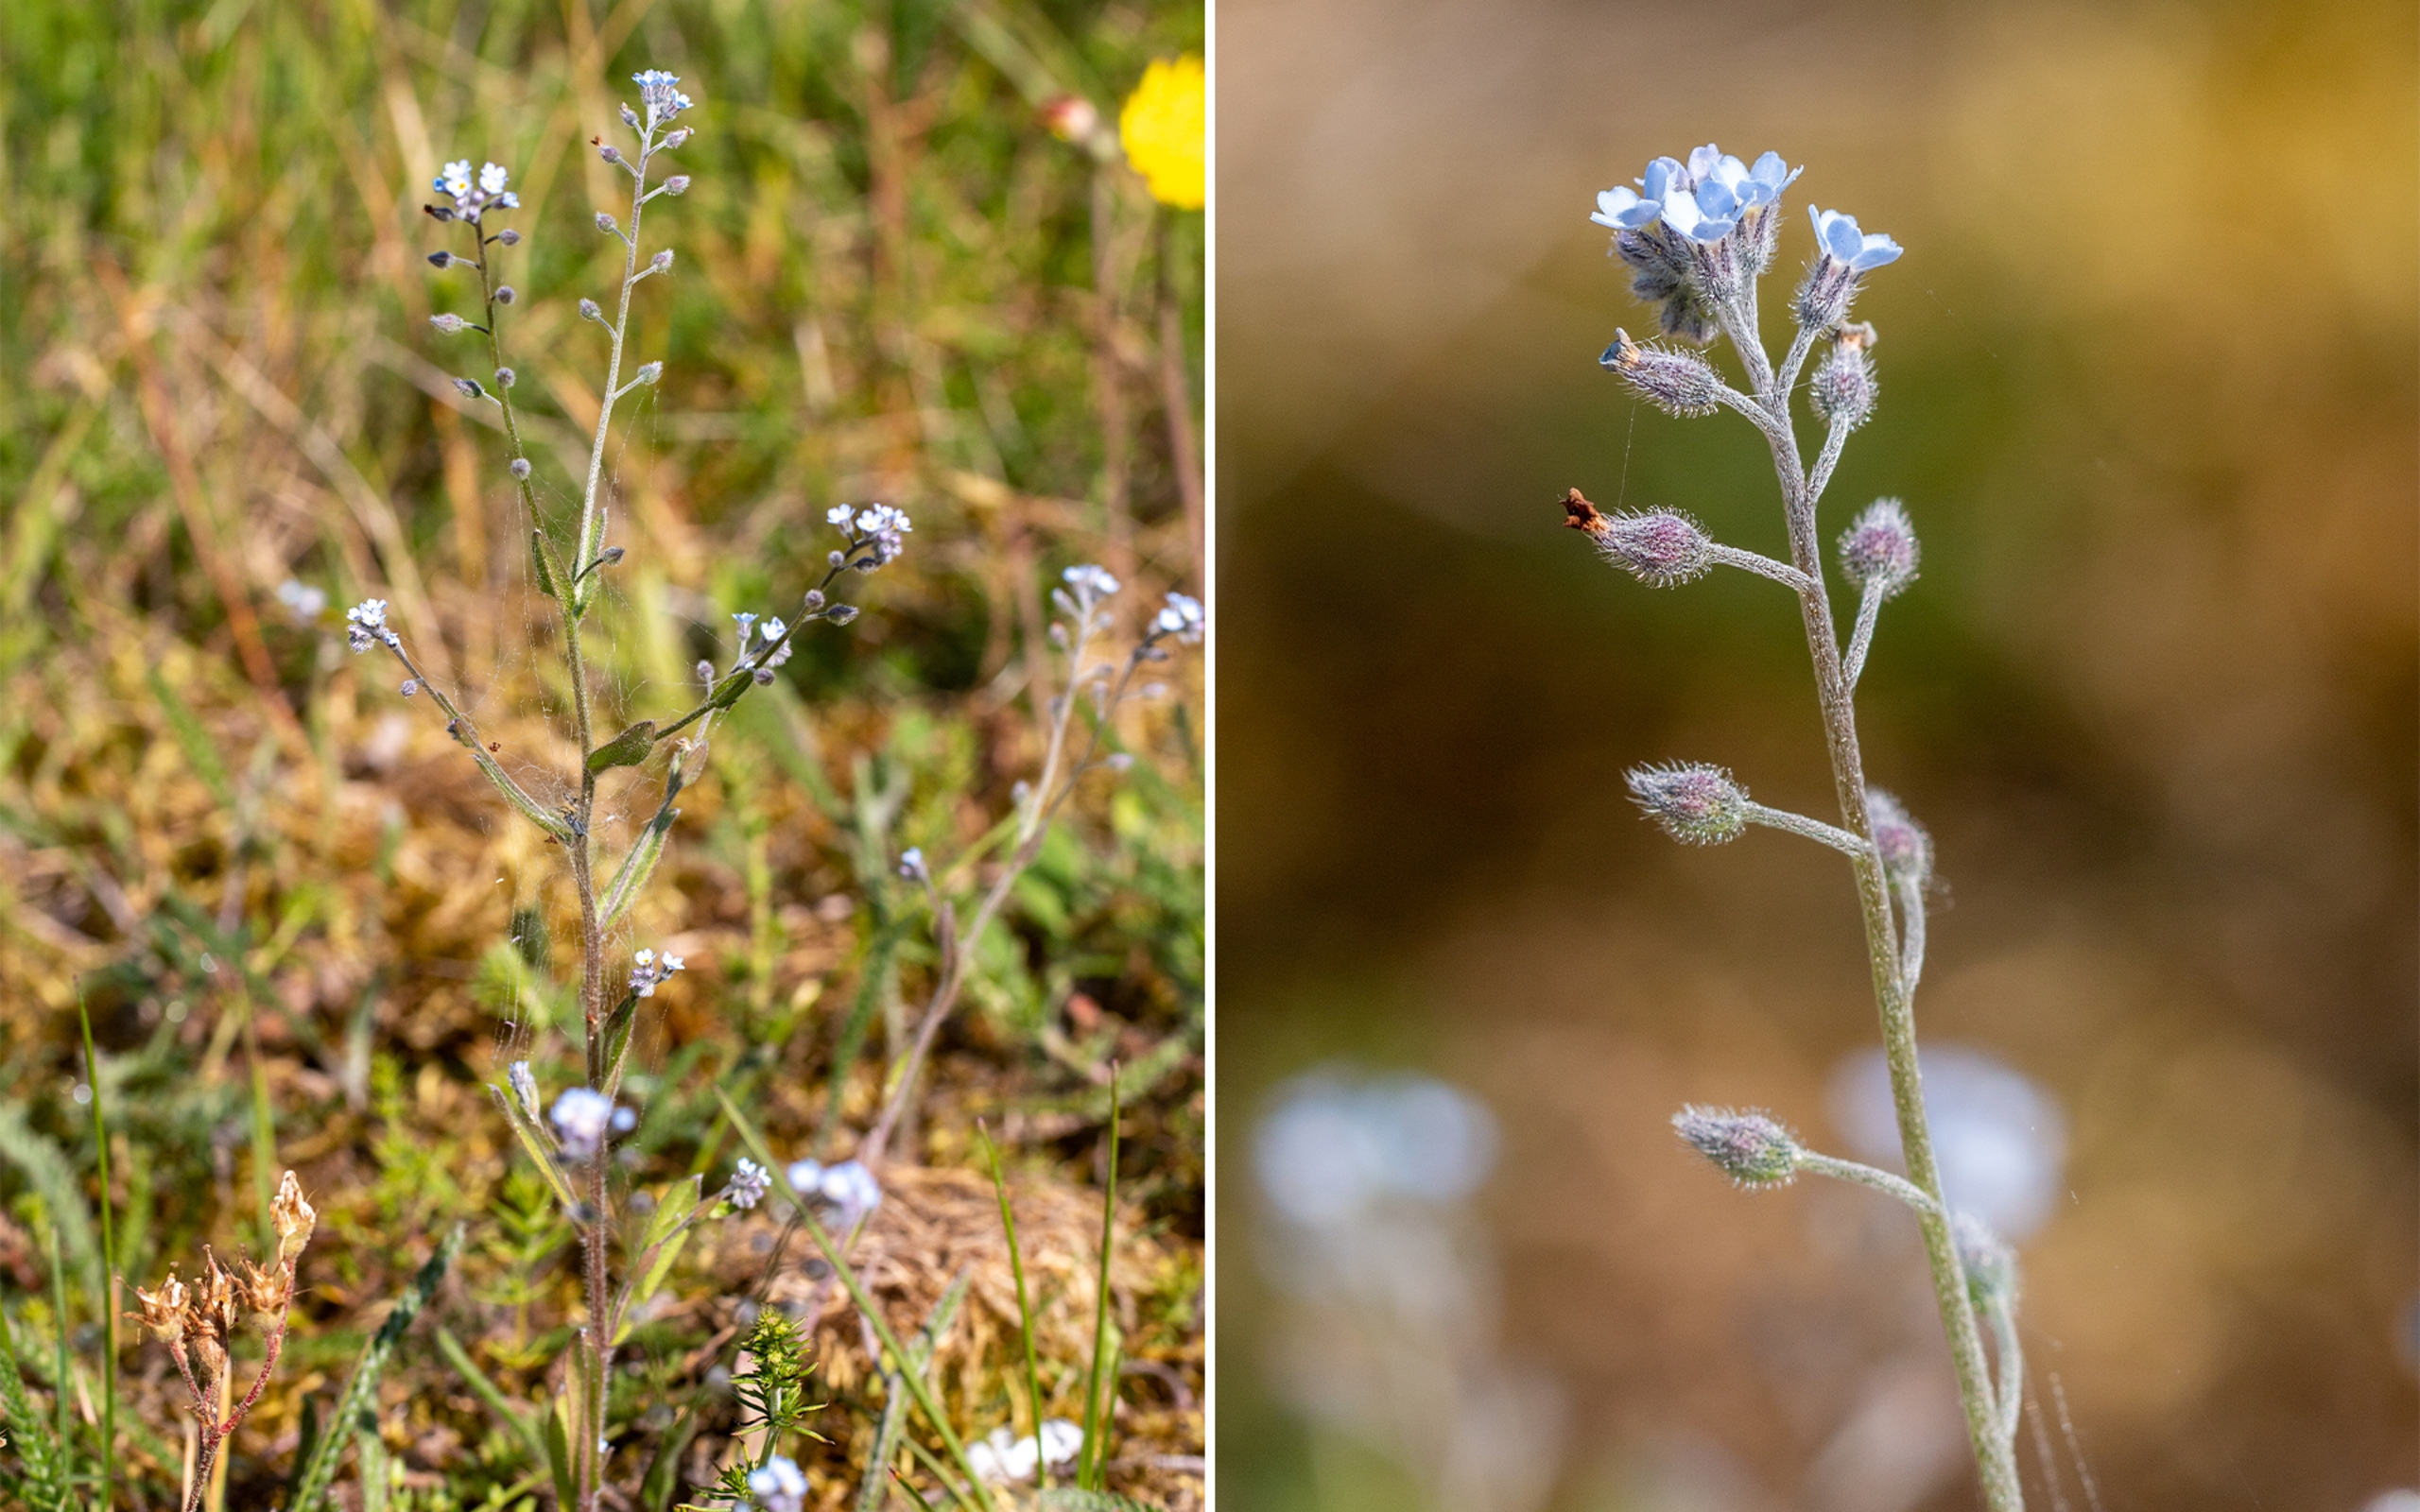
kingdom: Plantae
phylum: Tracheophyta
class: Magnoliopsida
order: Boraginales
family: Boraginaceae
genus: Myosotis
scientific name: Myosotis arvensis
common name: Mark-forglemmigej
